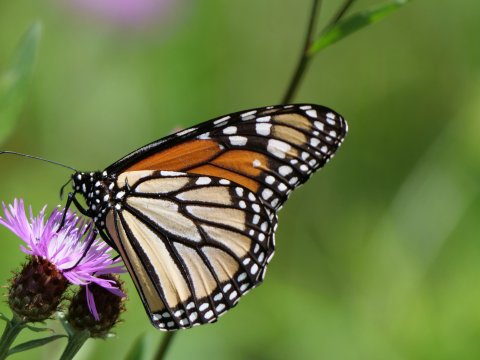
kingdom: Animalia
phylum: Arthropoda
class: Insecta
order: Lepidoptera
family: Nymphalidae
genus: Danaus
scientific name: Danaus plexippus
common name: Monarch
